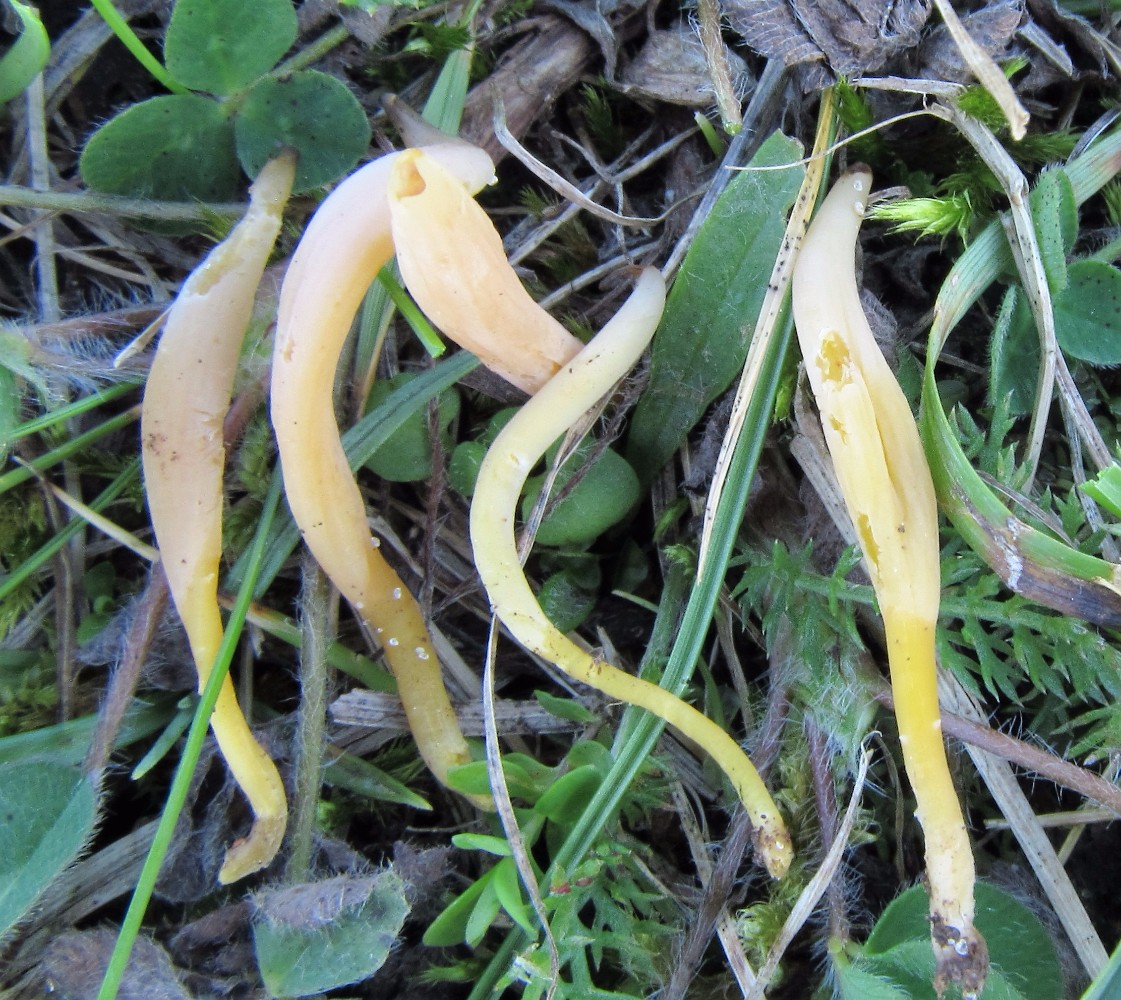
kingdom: Fungi
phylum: Basidiomycota
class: Agaricomycetes
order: Agaricales
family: Clavariaceae
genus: Clavaria
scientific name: Clavaria flavipes
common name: strågul køllesvamp
